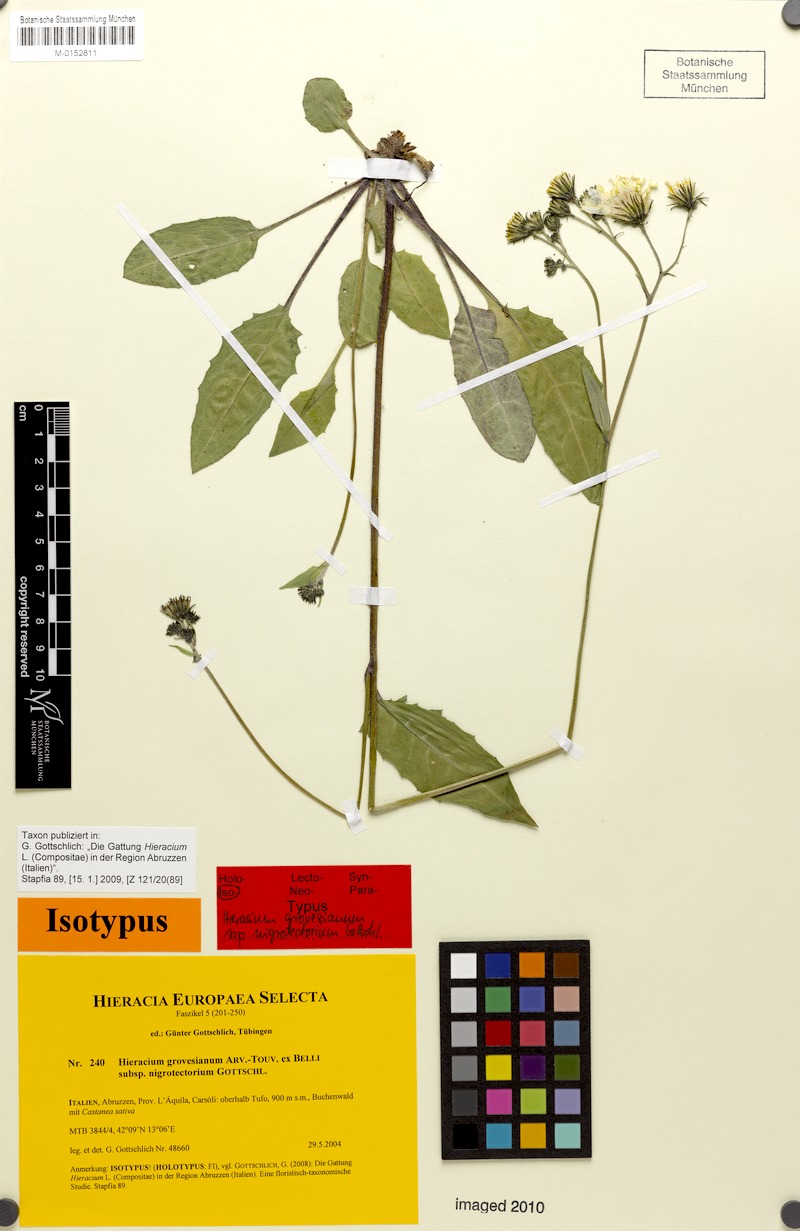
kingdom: Plantae
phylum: Tracheophyta
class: Magnoliopsida
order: Asterales
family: Asteraceae
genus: Hieracium
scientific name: Hieracium grovesianum
